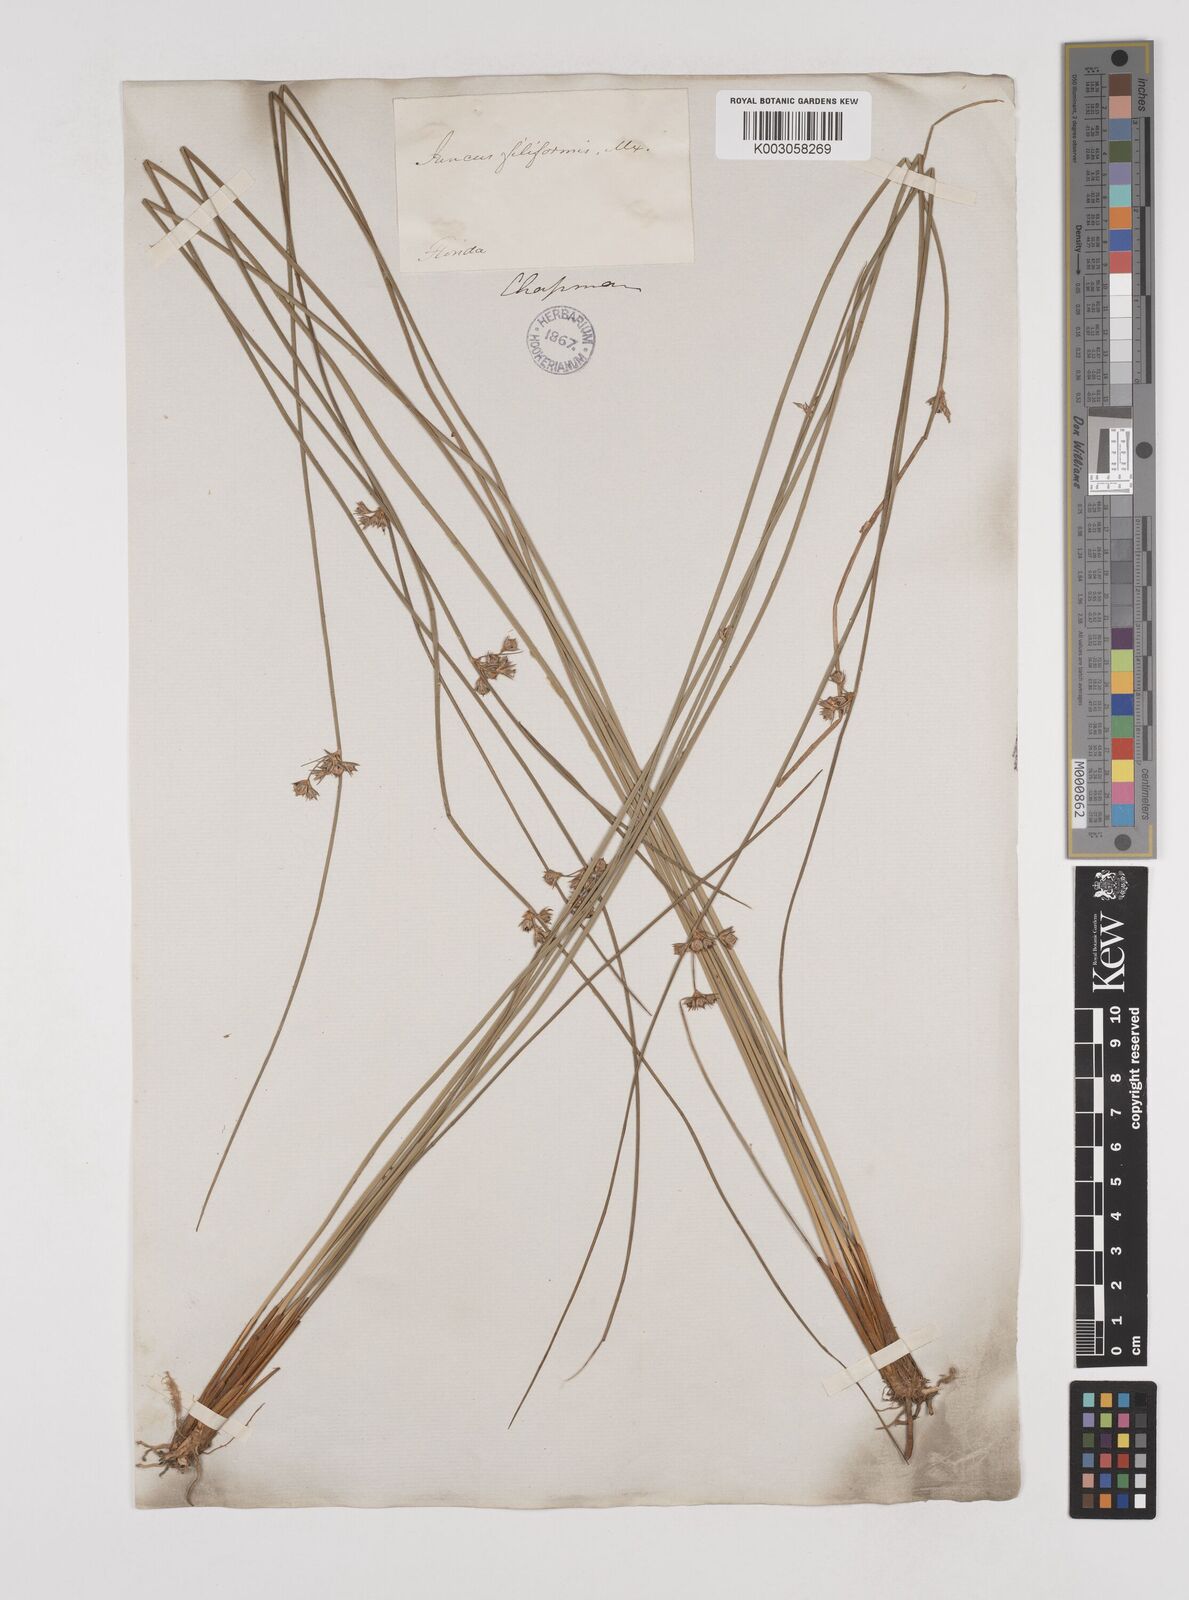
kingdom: Plantae
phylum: Tracheophyta
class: Liliopsida
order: Poales
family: Juncaceae
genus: Juncus
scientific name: Juncus
